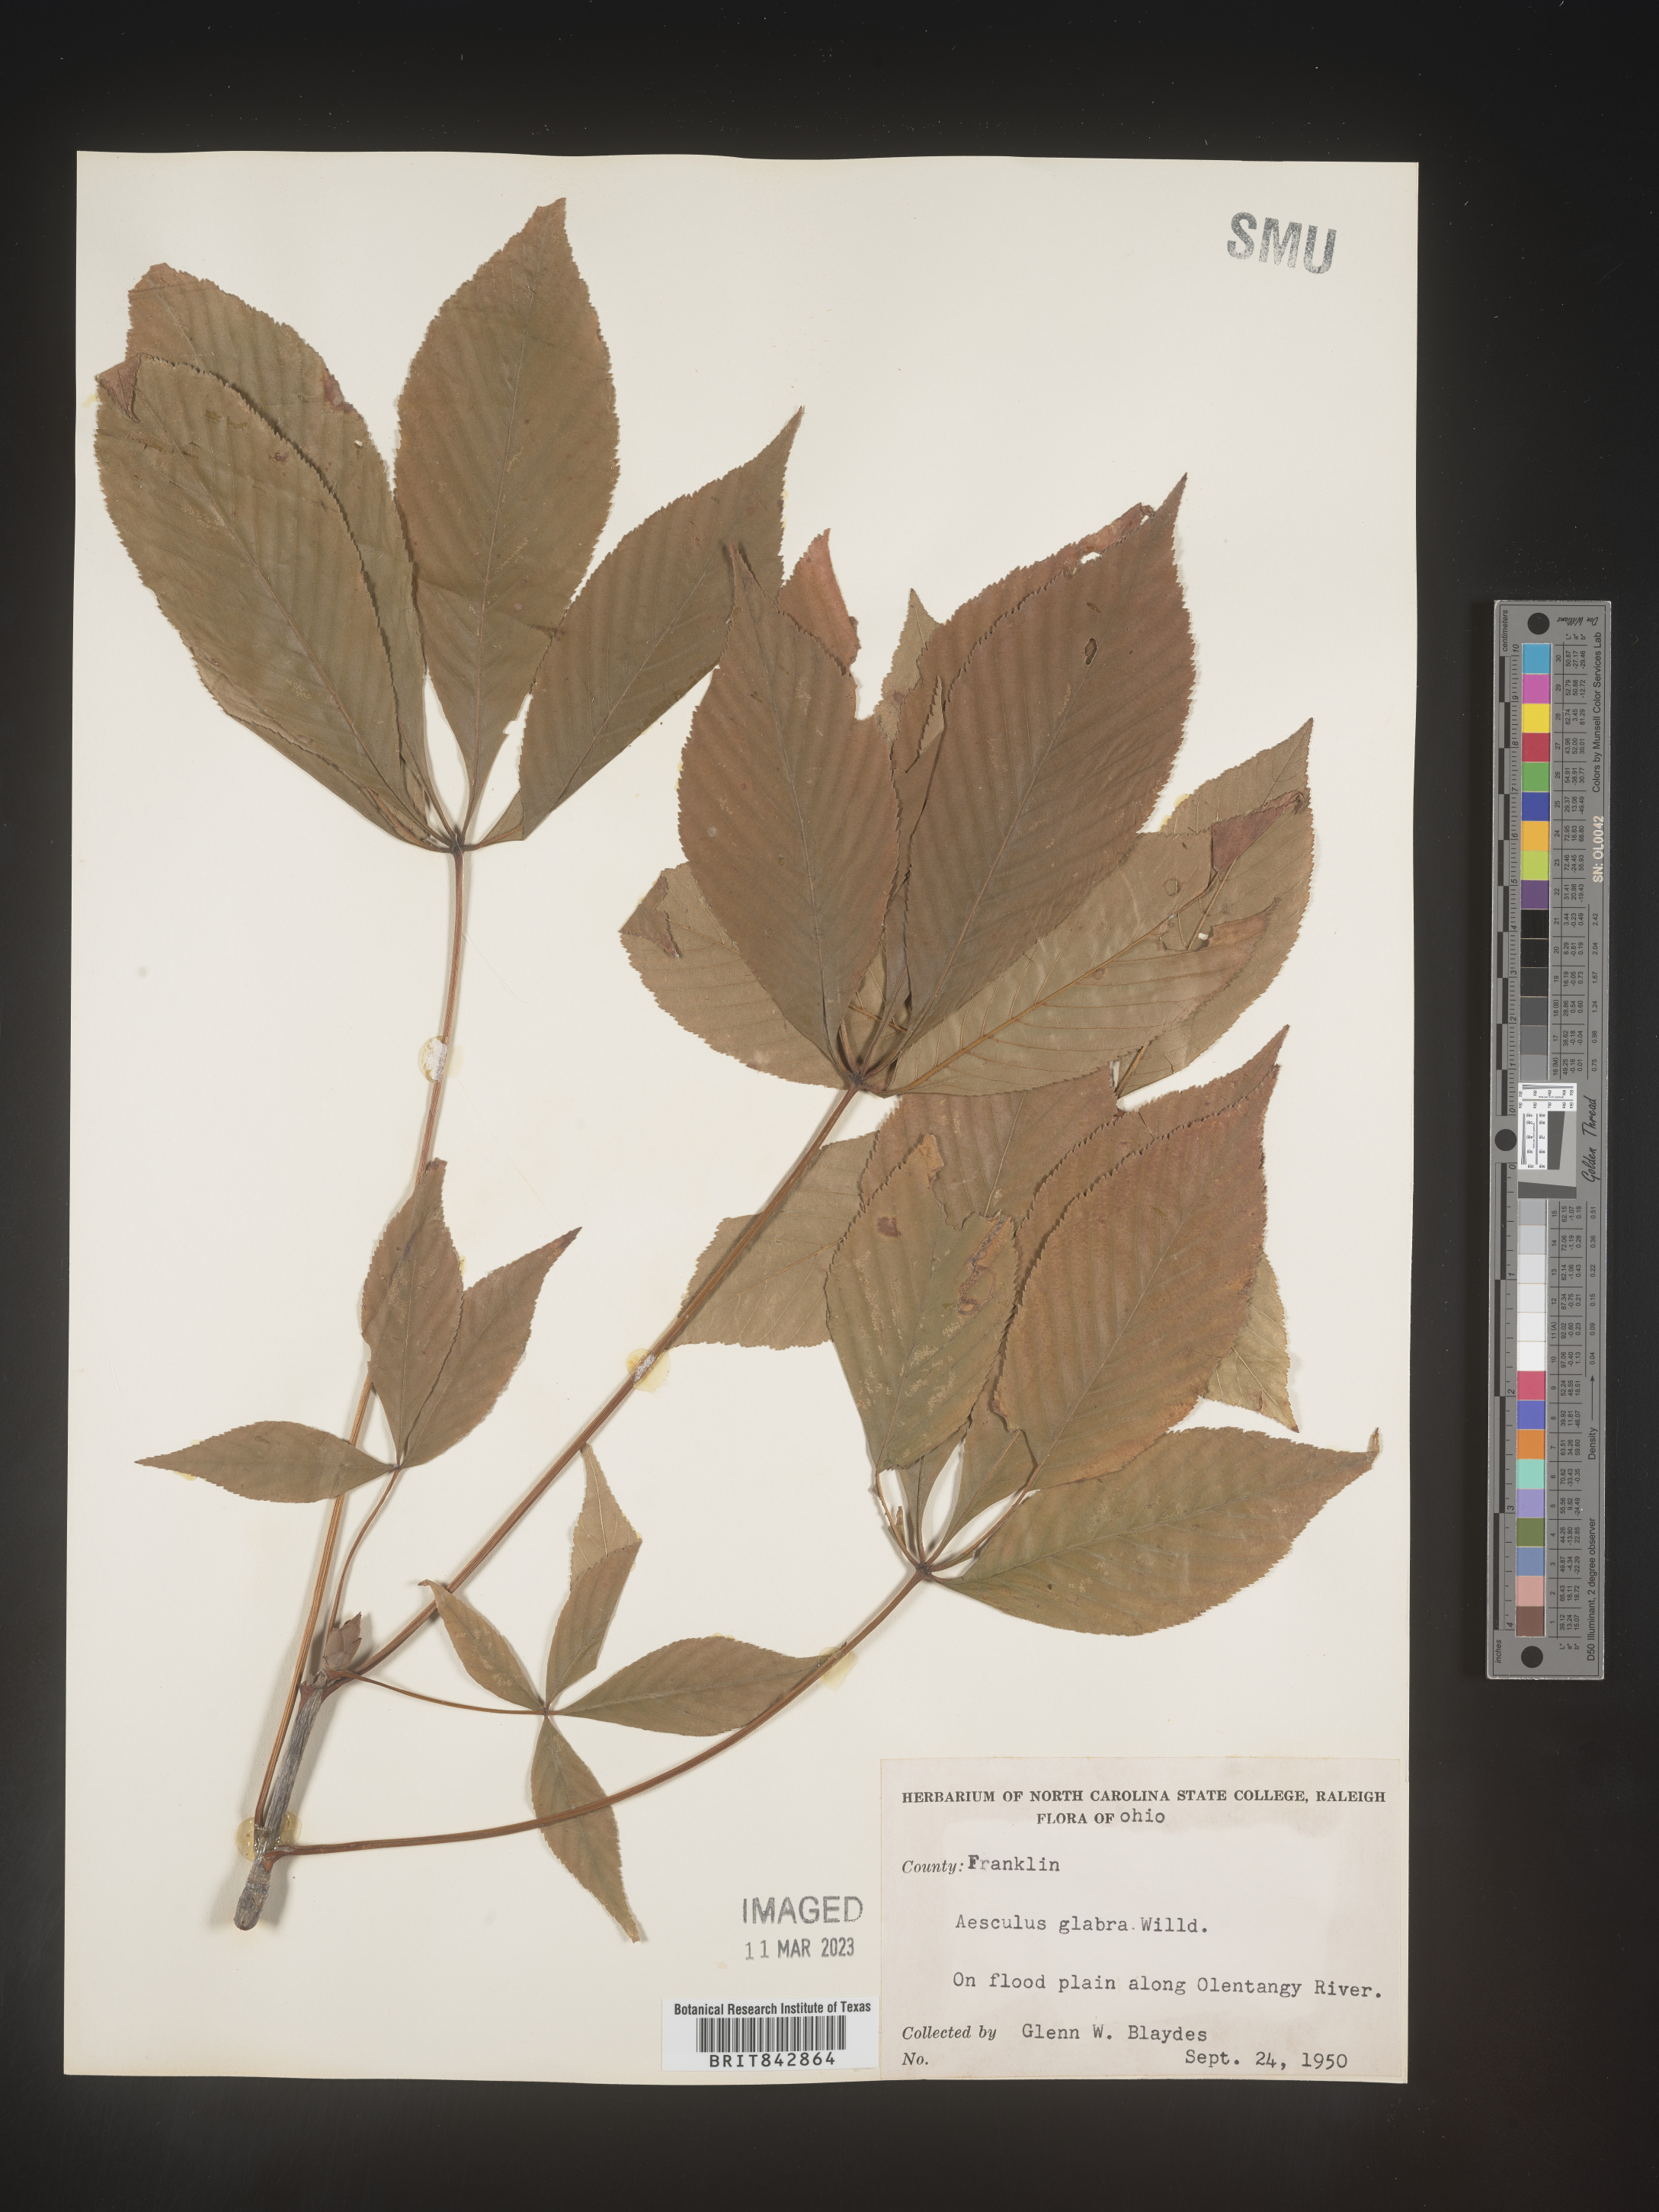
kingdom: Plantae
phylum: Tracheophyta
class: Magnoliopsida
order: Sapindales
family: Sapindaceae
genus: Aesculus
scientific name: Aesculus glabra
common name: Ohio buckeye
